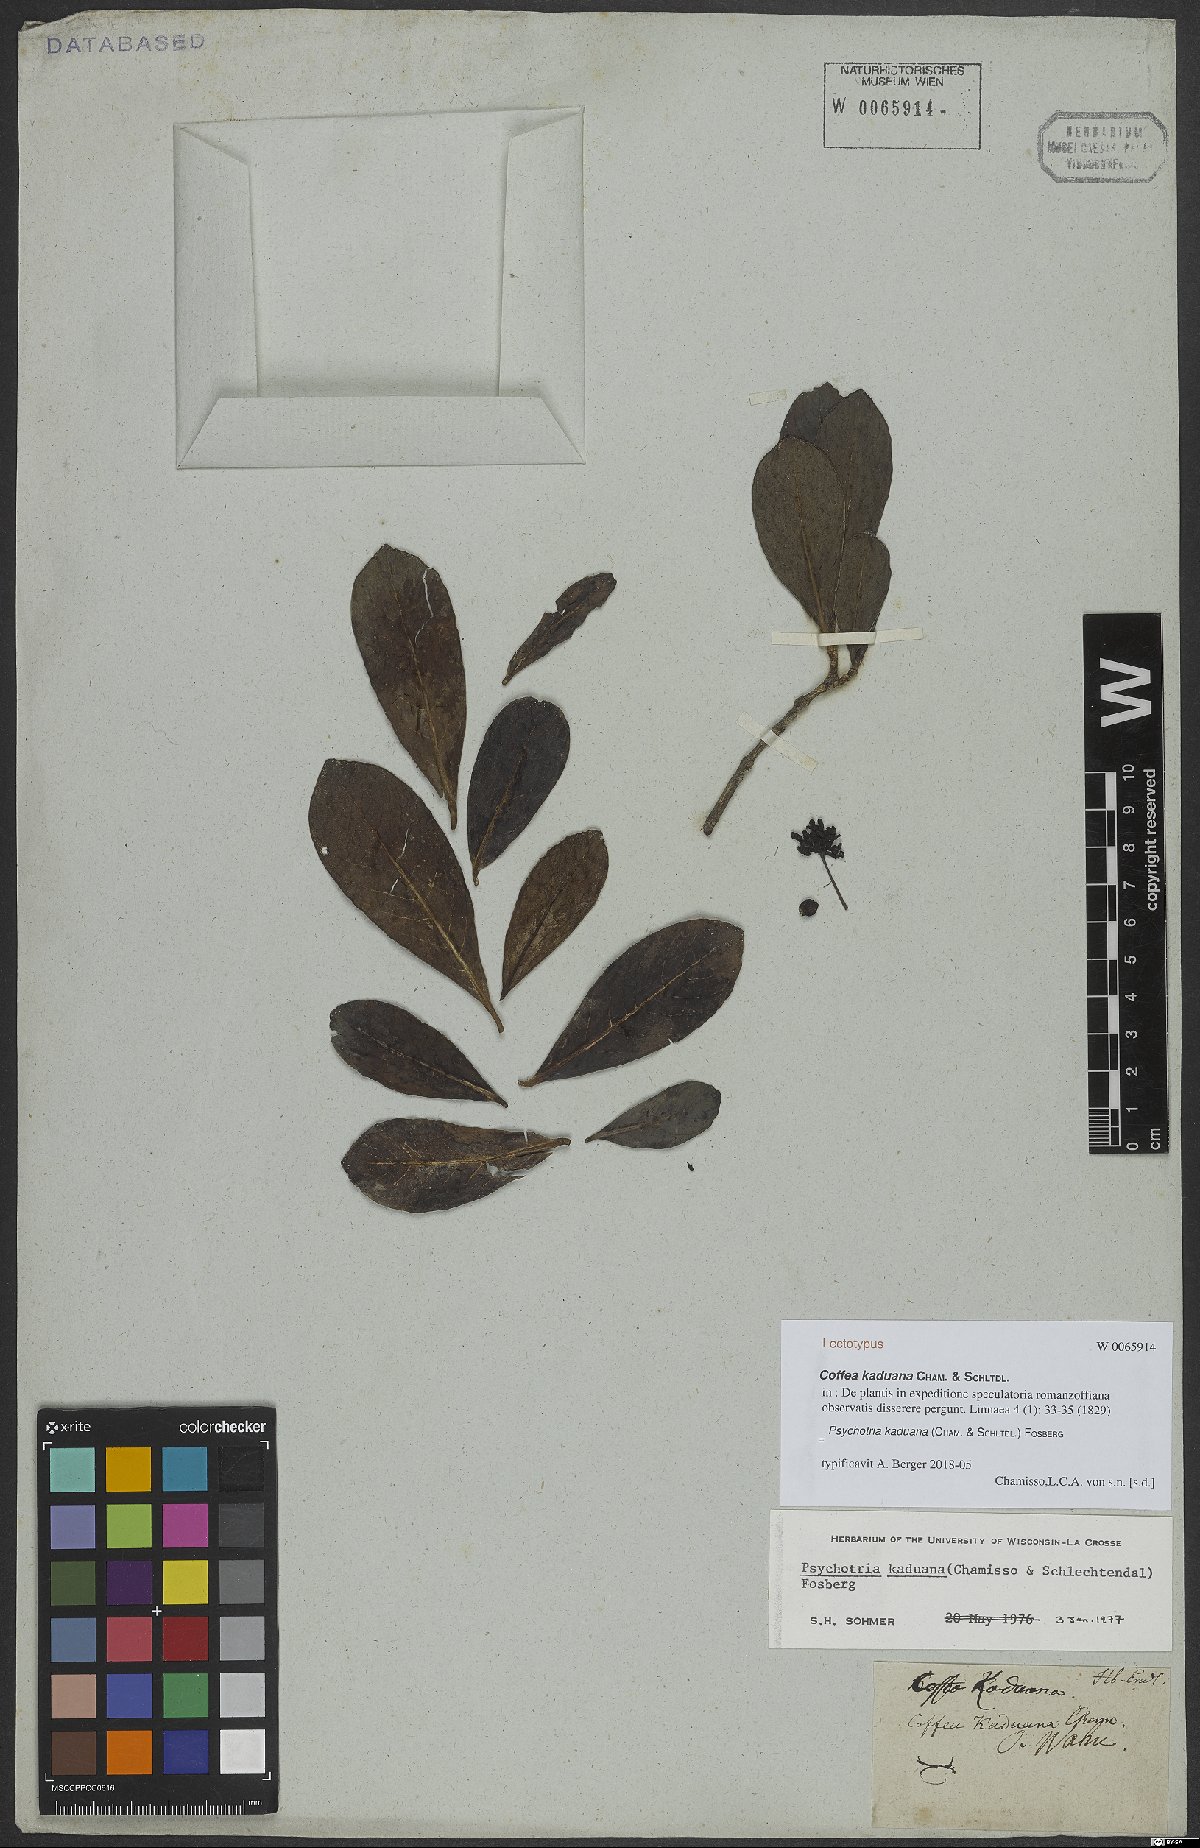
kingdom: Plantae
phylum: Tracheophyta
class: Magnoliopsida
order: Gentianales
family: Rubiaceae
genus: Psychotria
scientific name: Psychotria kaduana
